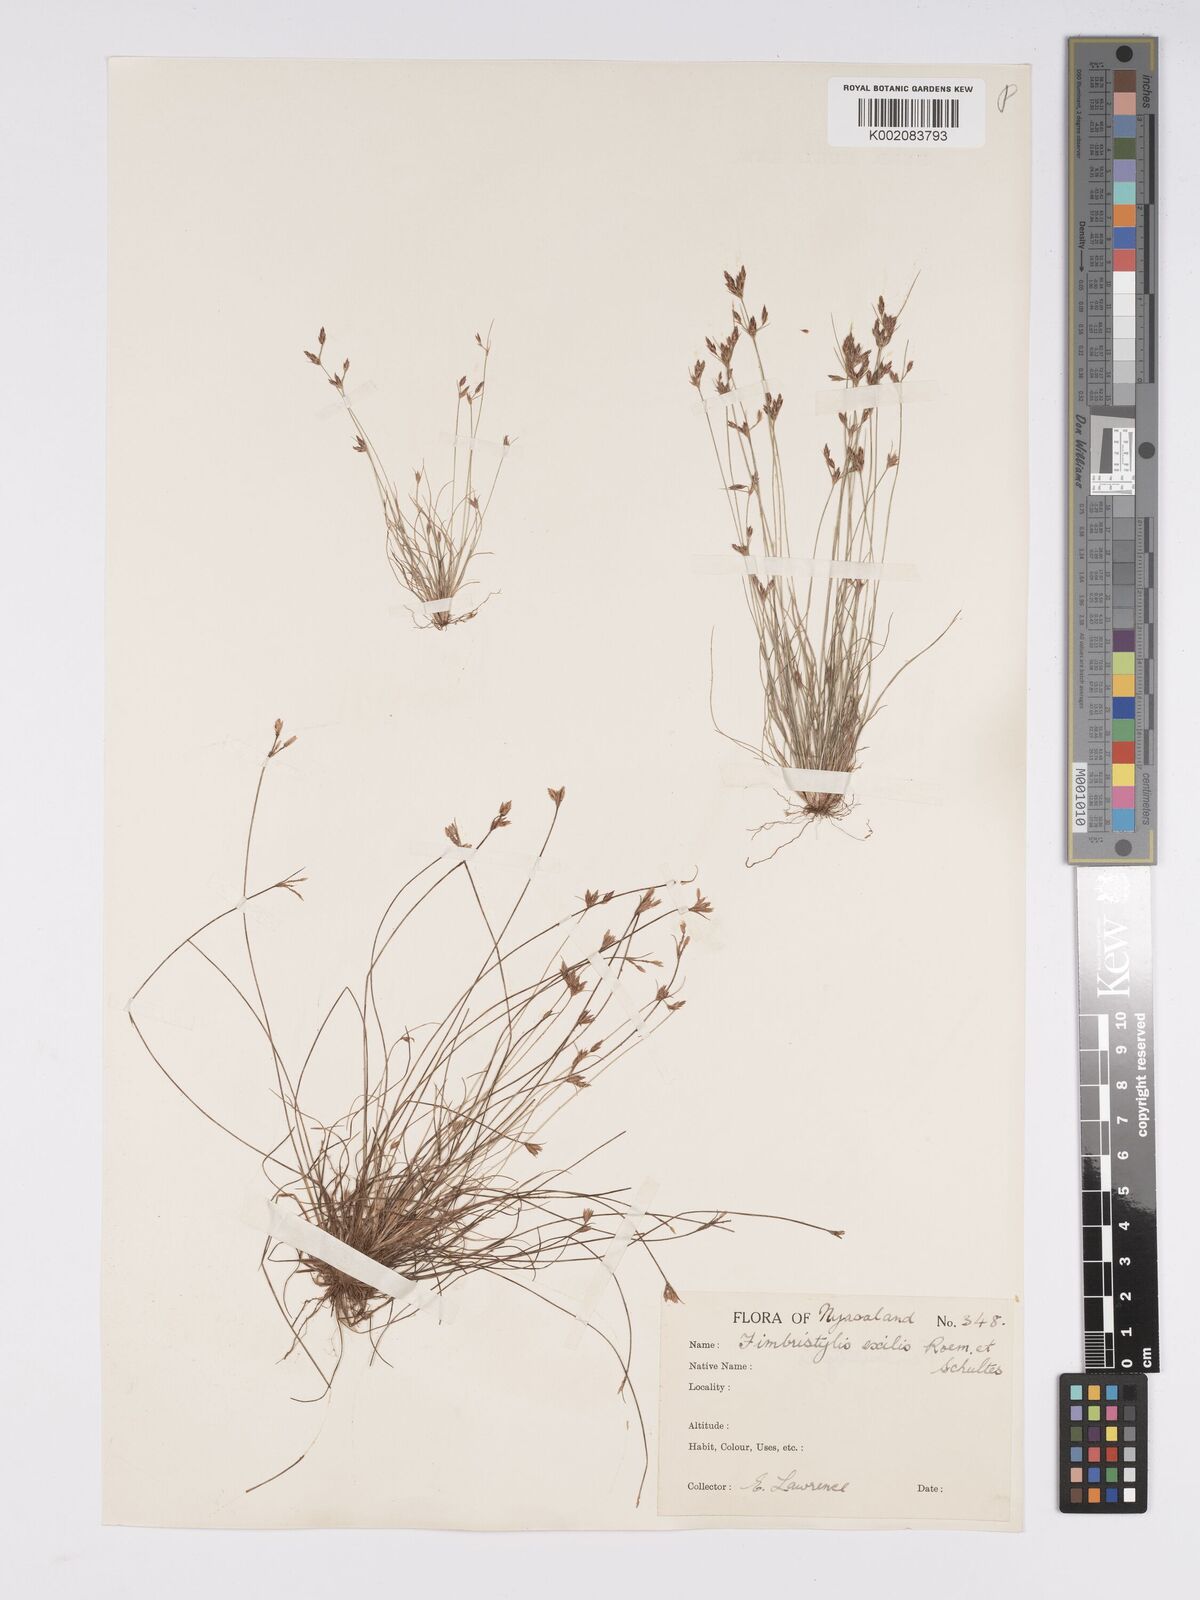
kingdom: Plantae
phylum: Tracheophyta
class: Liliopsida
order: Poales
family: Cyperaceae
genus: Bulbostylis
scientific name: Bulbostylis hispidula
